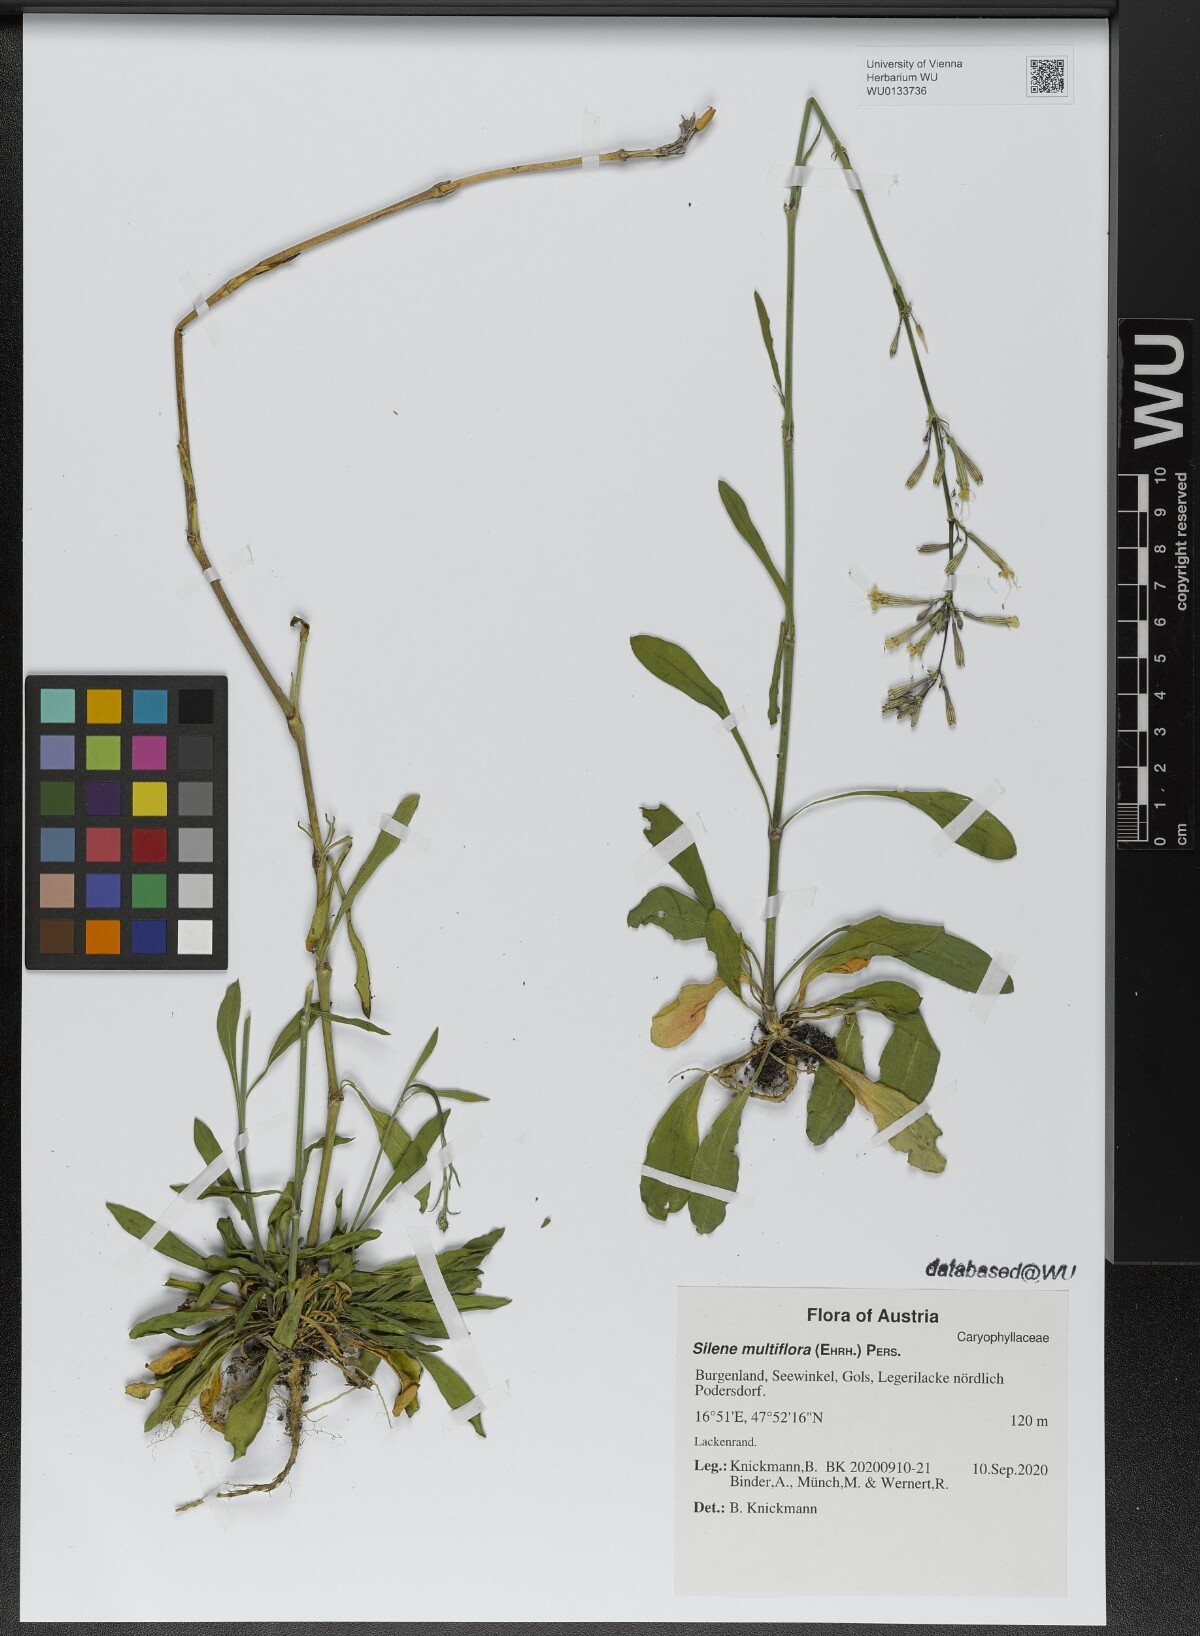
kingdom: Plantae
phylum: Tracheophyta
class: Magnoliopsida
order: Caryophyllales
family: Caryophyllaceae
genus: Silene
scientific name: Silene multiflora
